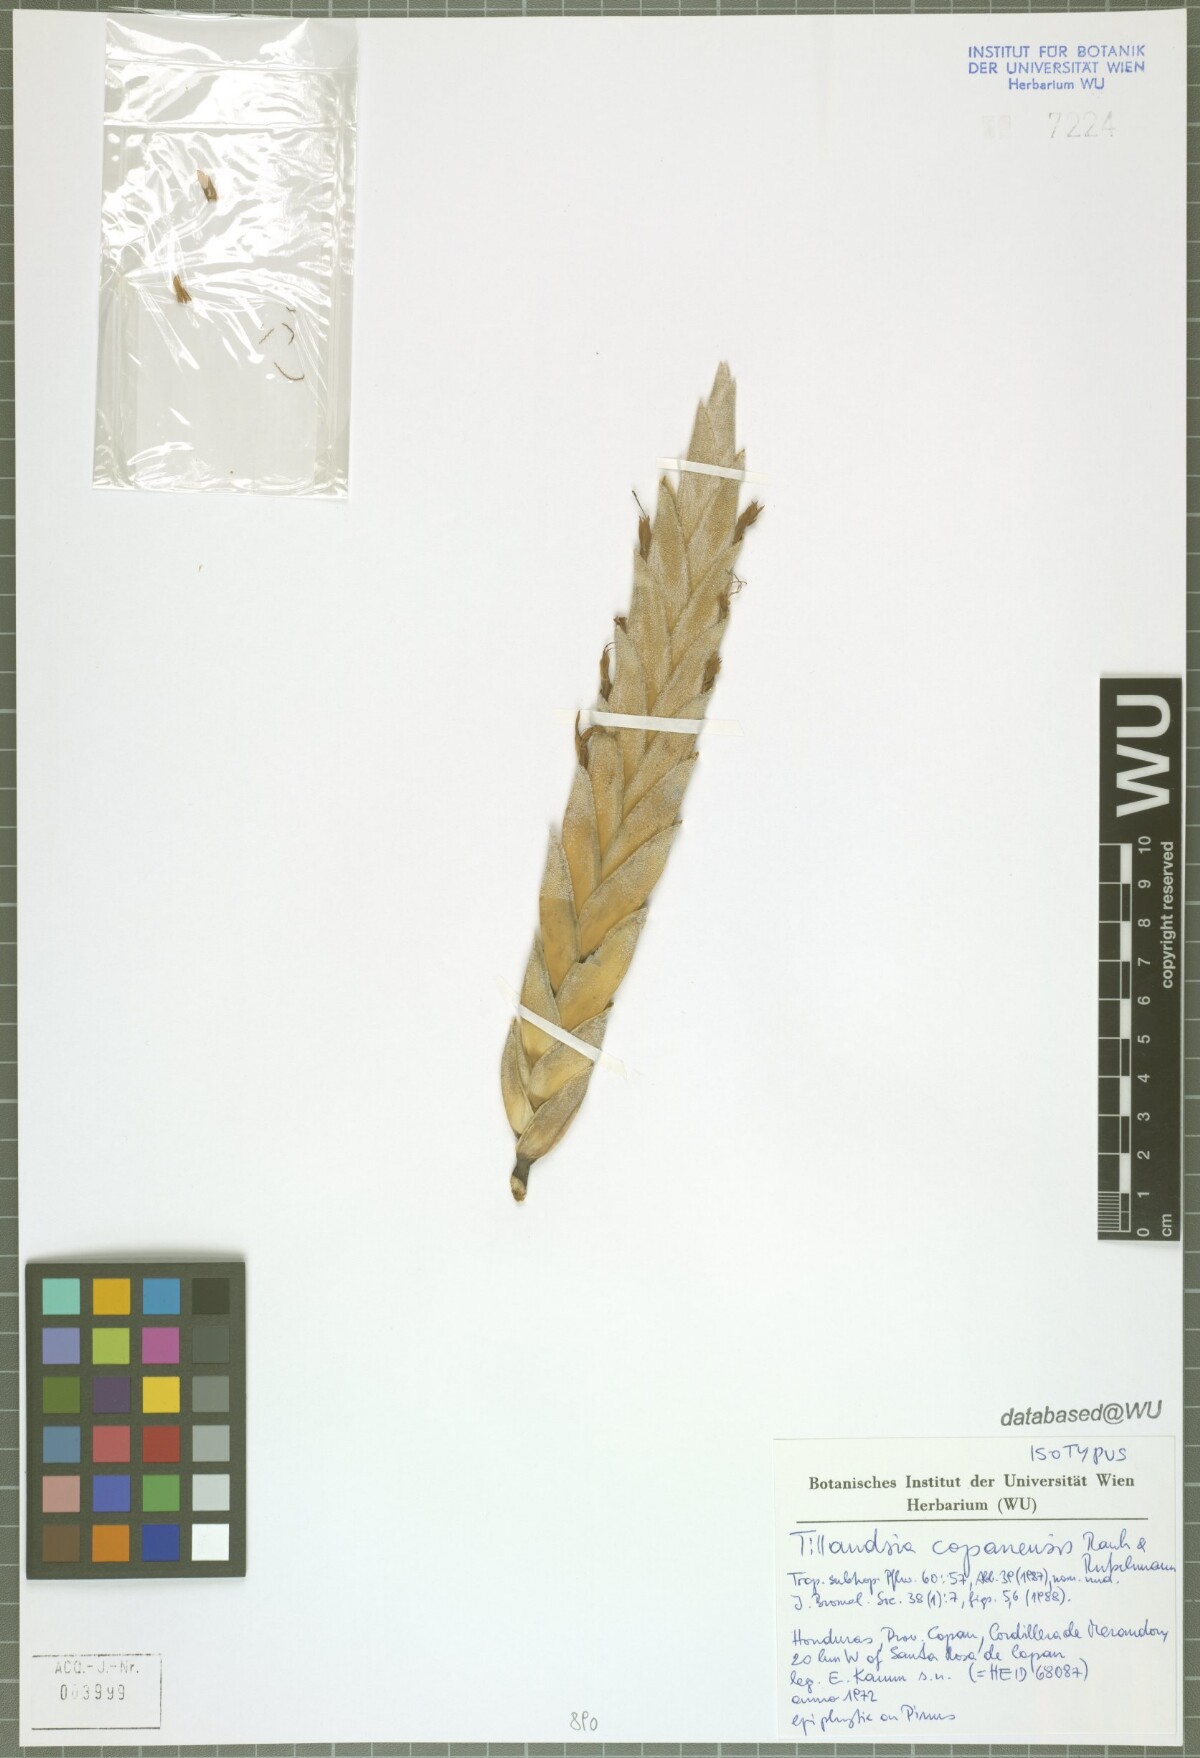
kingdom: Plantae
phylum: Tracheophyta
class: Liliopsida
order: Poales
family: Bromeliaceae
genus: Tillandsia
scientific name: Tillandsia copanensis
